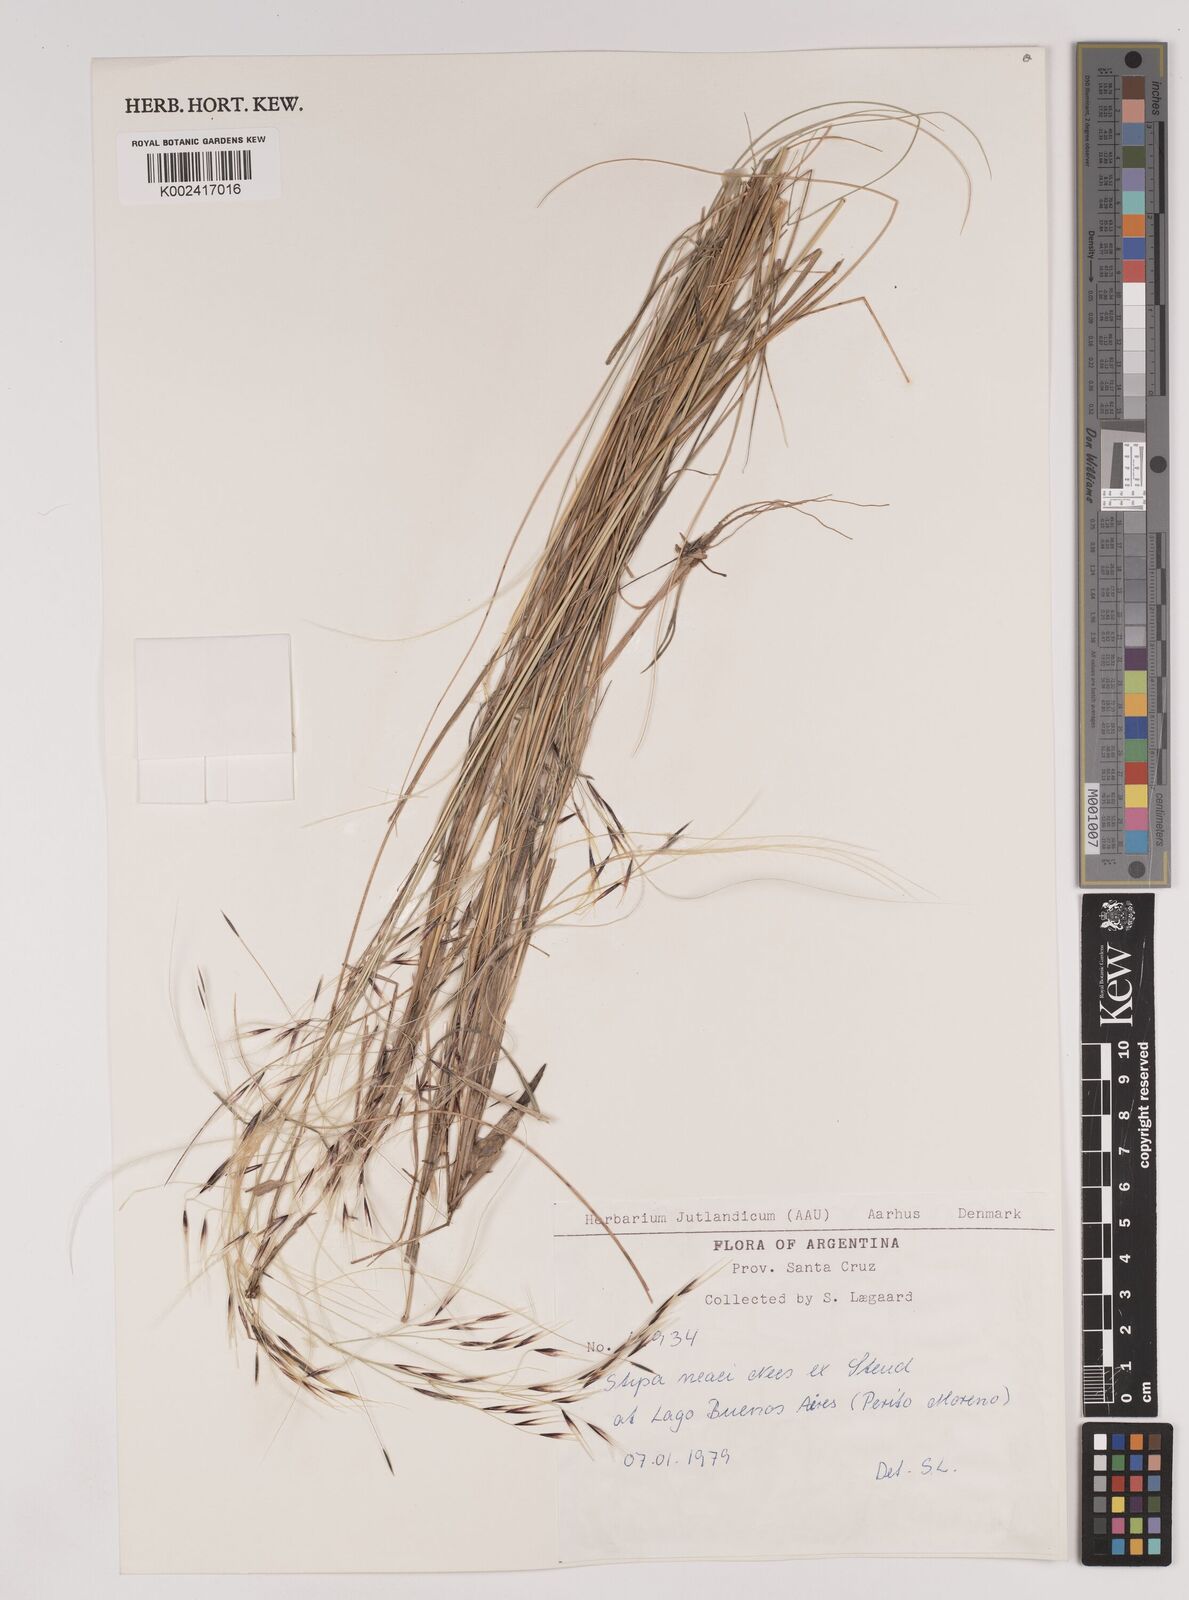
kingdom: Plantae
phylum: Tracheophyta
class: Liliopsida
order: Poales
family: Poaceae
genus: Stipa
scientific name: Stipa neaei
